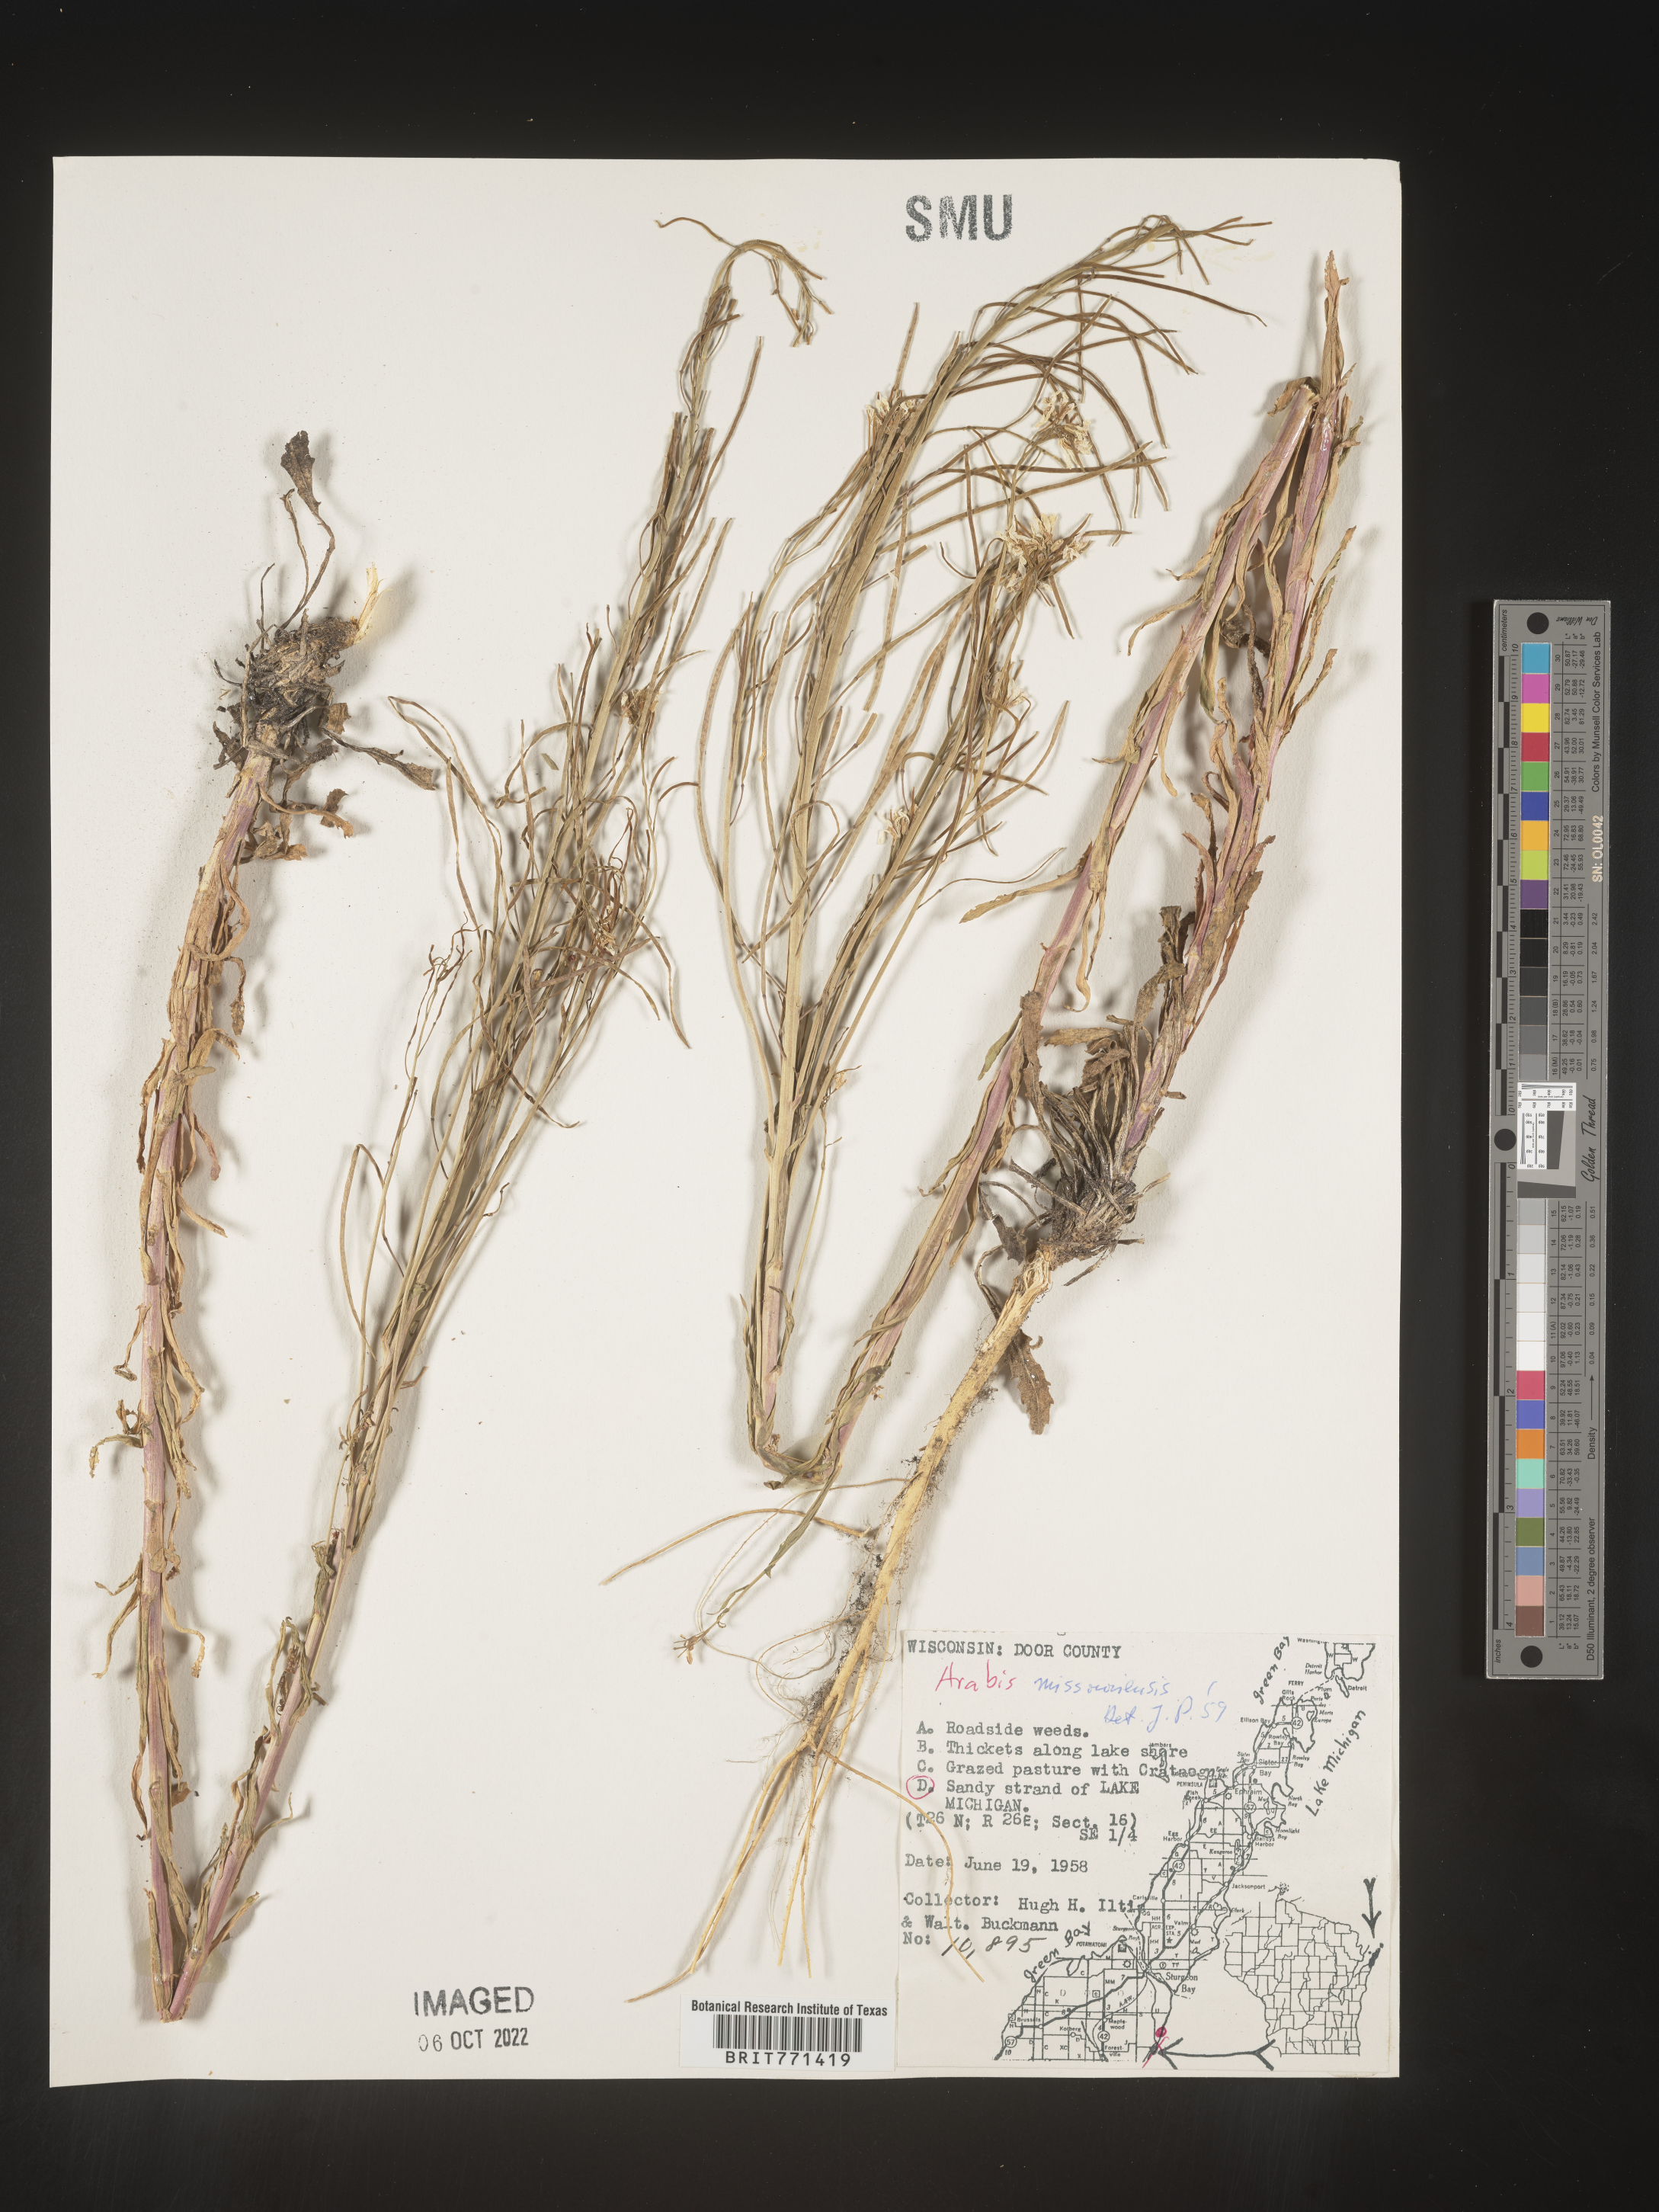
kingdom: Plantae
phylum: Tracheophyta
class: Magnoliopsida
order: Brassicales
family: Brassicaceae
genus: Arabis
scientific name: Arabis
